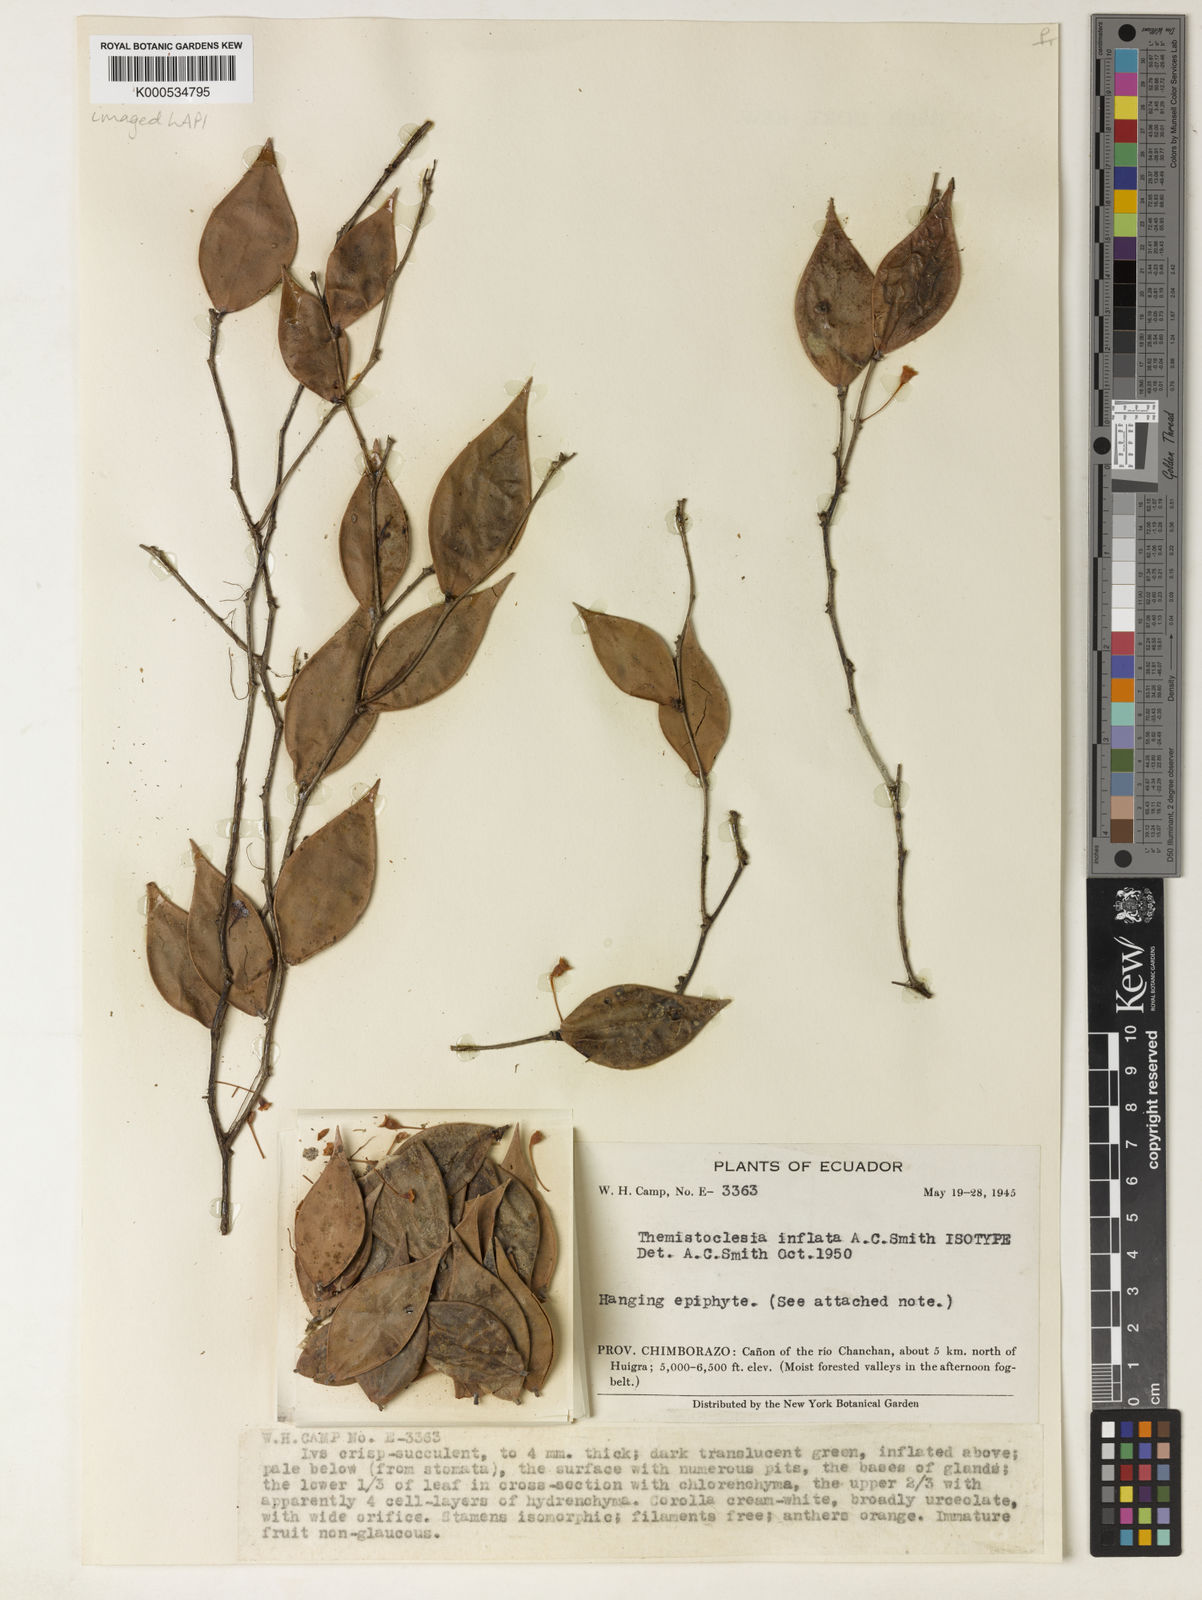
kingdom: Plantae
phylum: Tracheophyta
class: Magnoliopsida
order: Ericales
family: Ericaceae
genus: Themistoclesia
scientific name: Themistoclesia inflata
